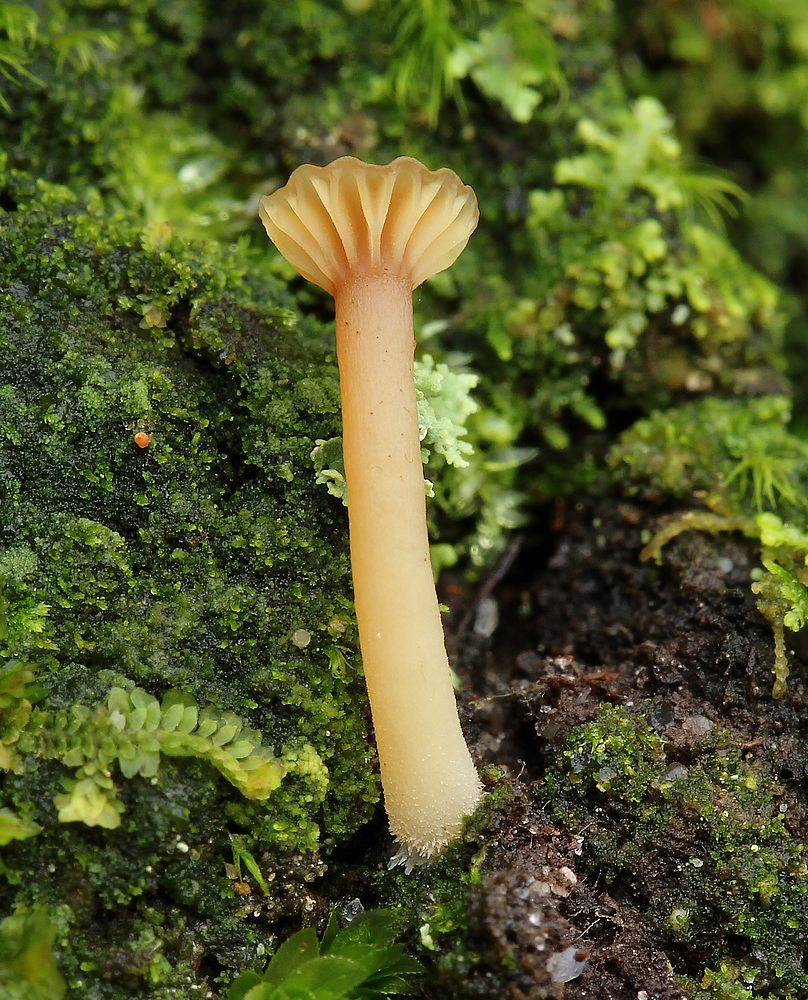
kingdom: Fungi
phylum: Basidiomycota
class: Agaricomycetes
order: Agaricales
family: Hygrophoraceae
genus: Lichenomphalia
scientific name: Lichenomphalia umbellifera
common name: tørve-lavhat
